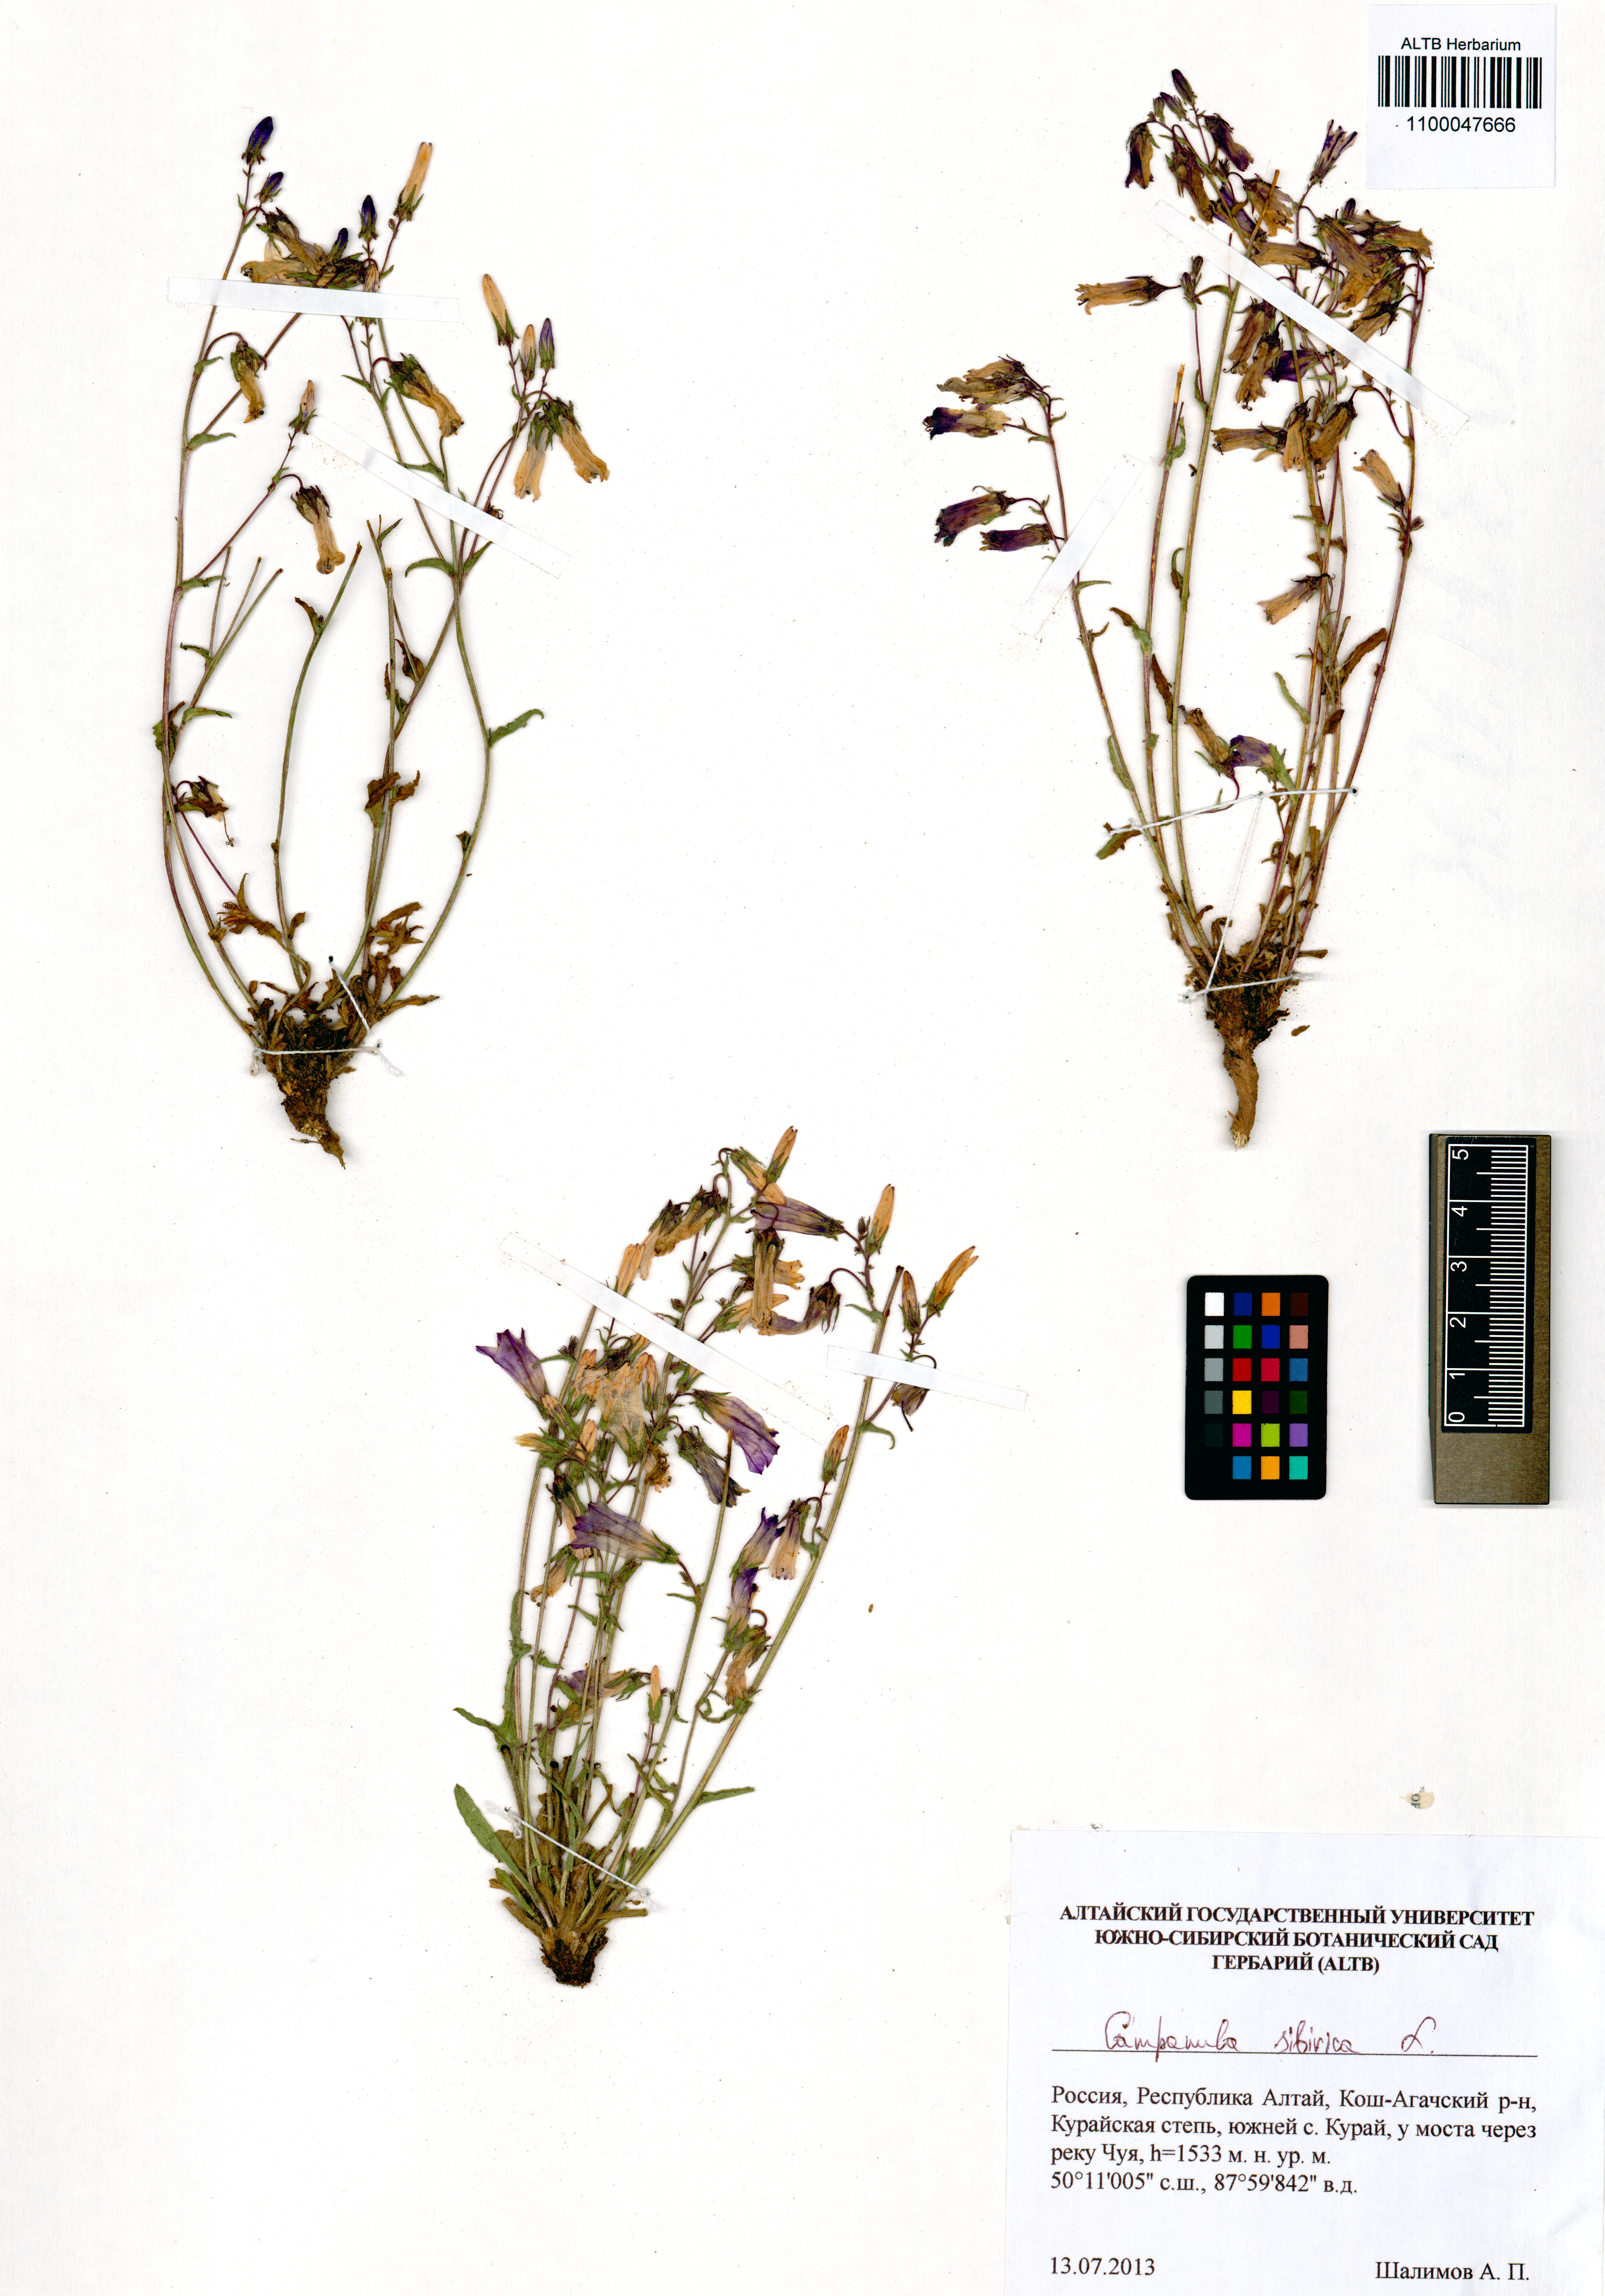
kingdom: Plantae
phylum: Tracheophyta
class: Magnoliopsida
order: Asterales
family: Campanulaceae
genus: Campanula
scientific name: Campanula sibirica
